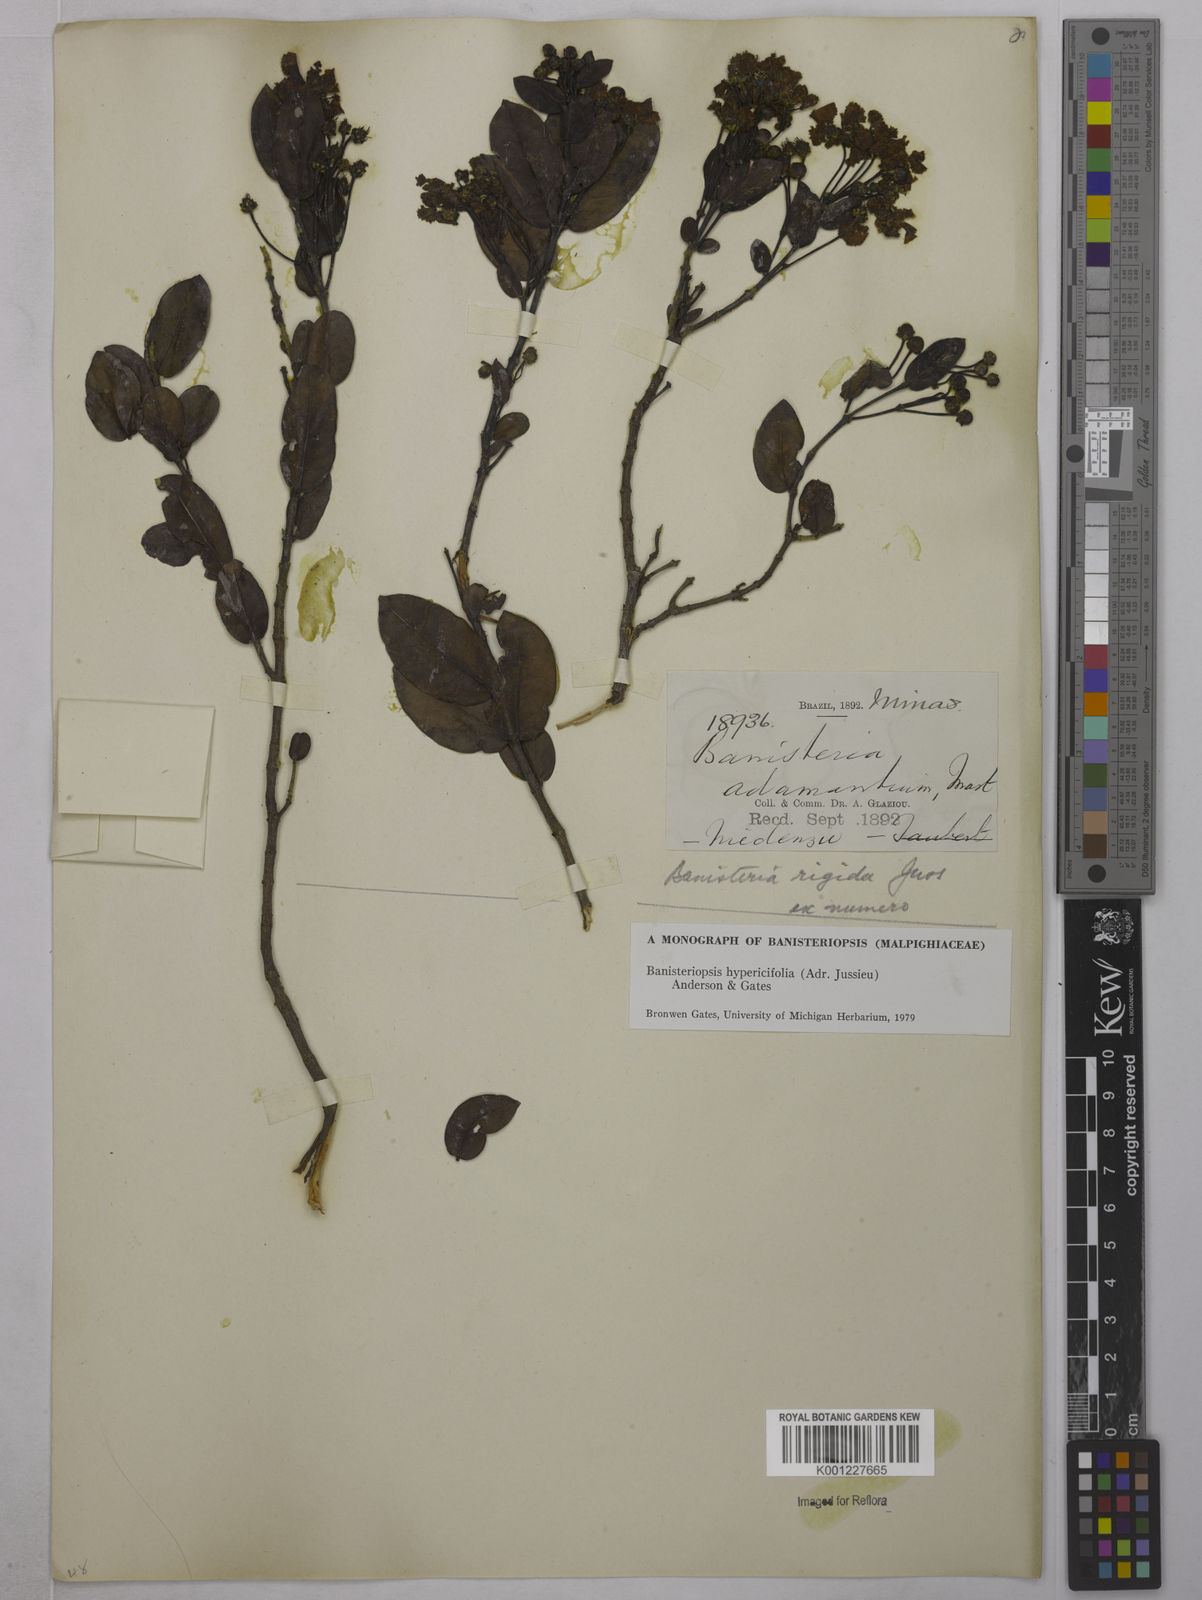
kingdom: Plantae
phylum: Tracheophyta
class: Magnoliopsida
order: Malpighiales
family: Malpighiaceae
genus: Diplopterys
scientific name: Diplopterys hypericifolia
